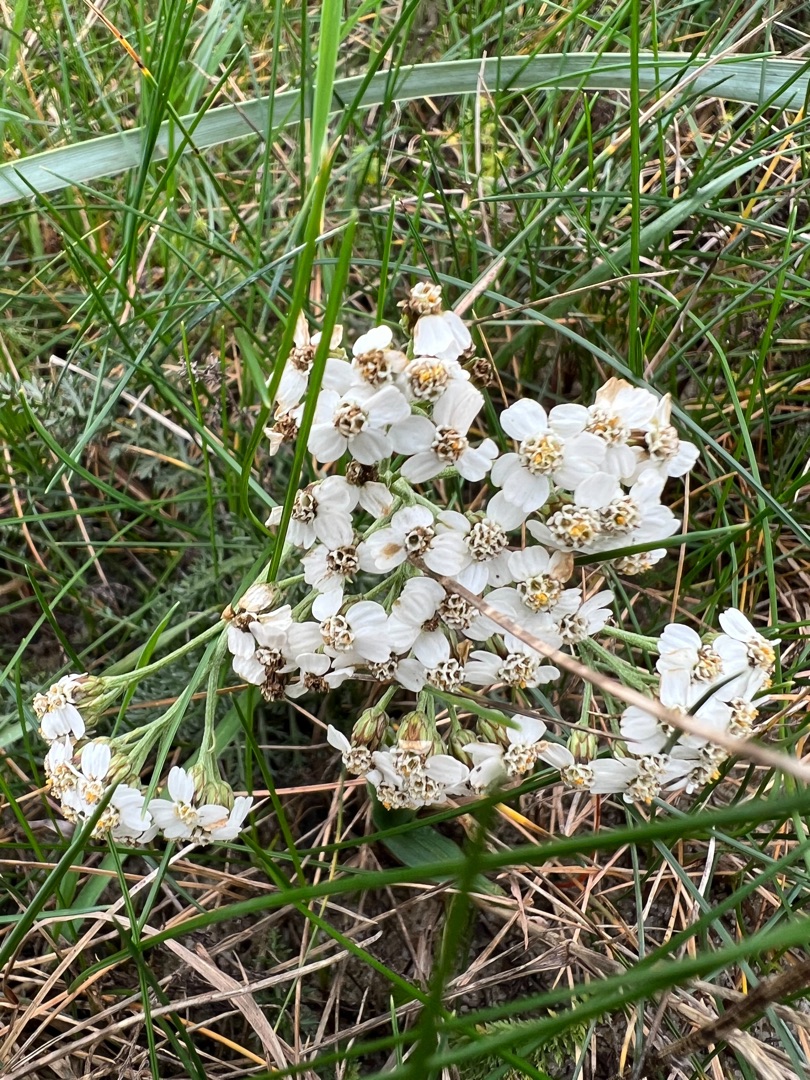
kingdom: Plantae
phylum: Tracheophyta
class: Magnoliopsida
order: Asterales
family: Asteraceae
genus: Achillea
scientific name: Achillea millefolium
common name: Almindelig røllike
